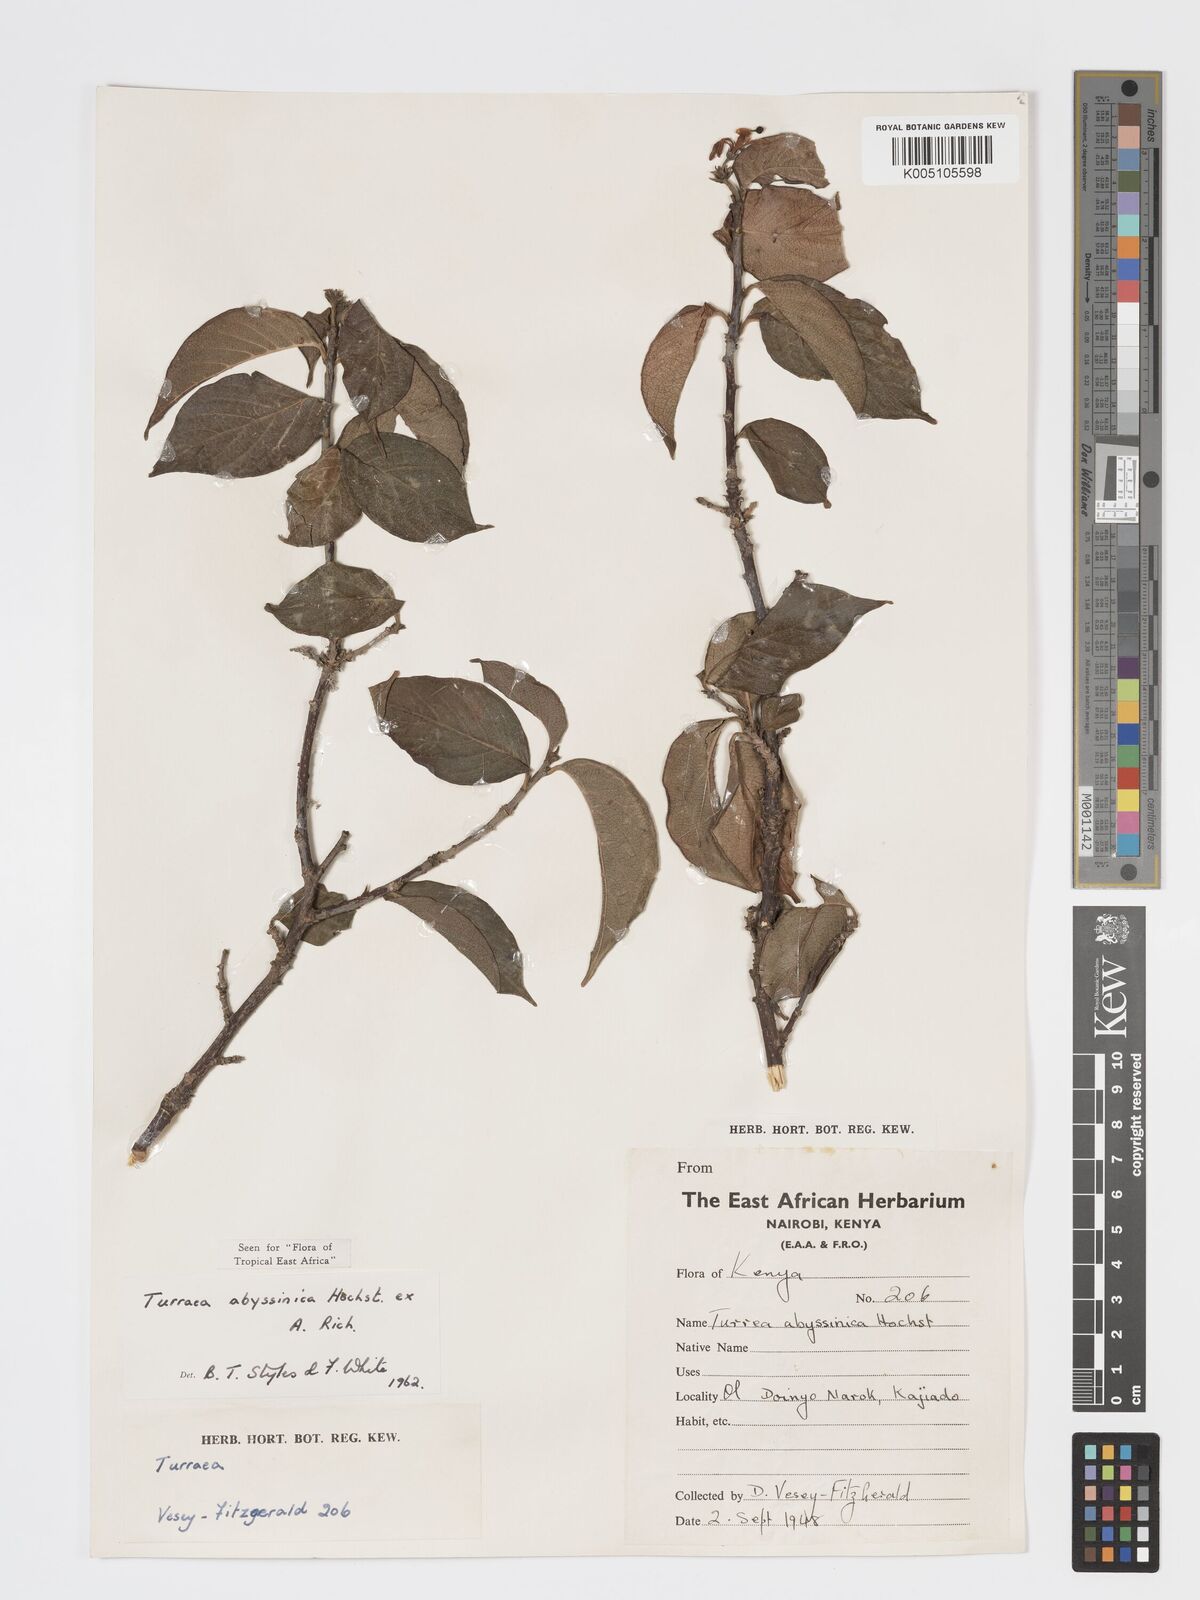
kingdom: Plantae
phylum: Tracheophyta
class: Magnoliopsida
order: Sapindales
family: Meliaceae
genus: Turraea
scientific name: Turraea abyssinica
